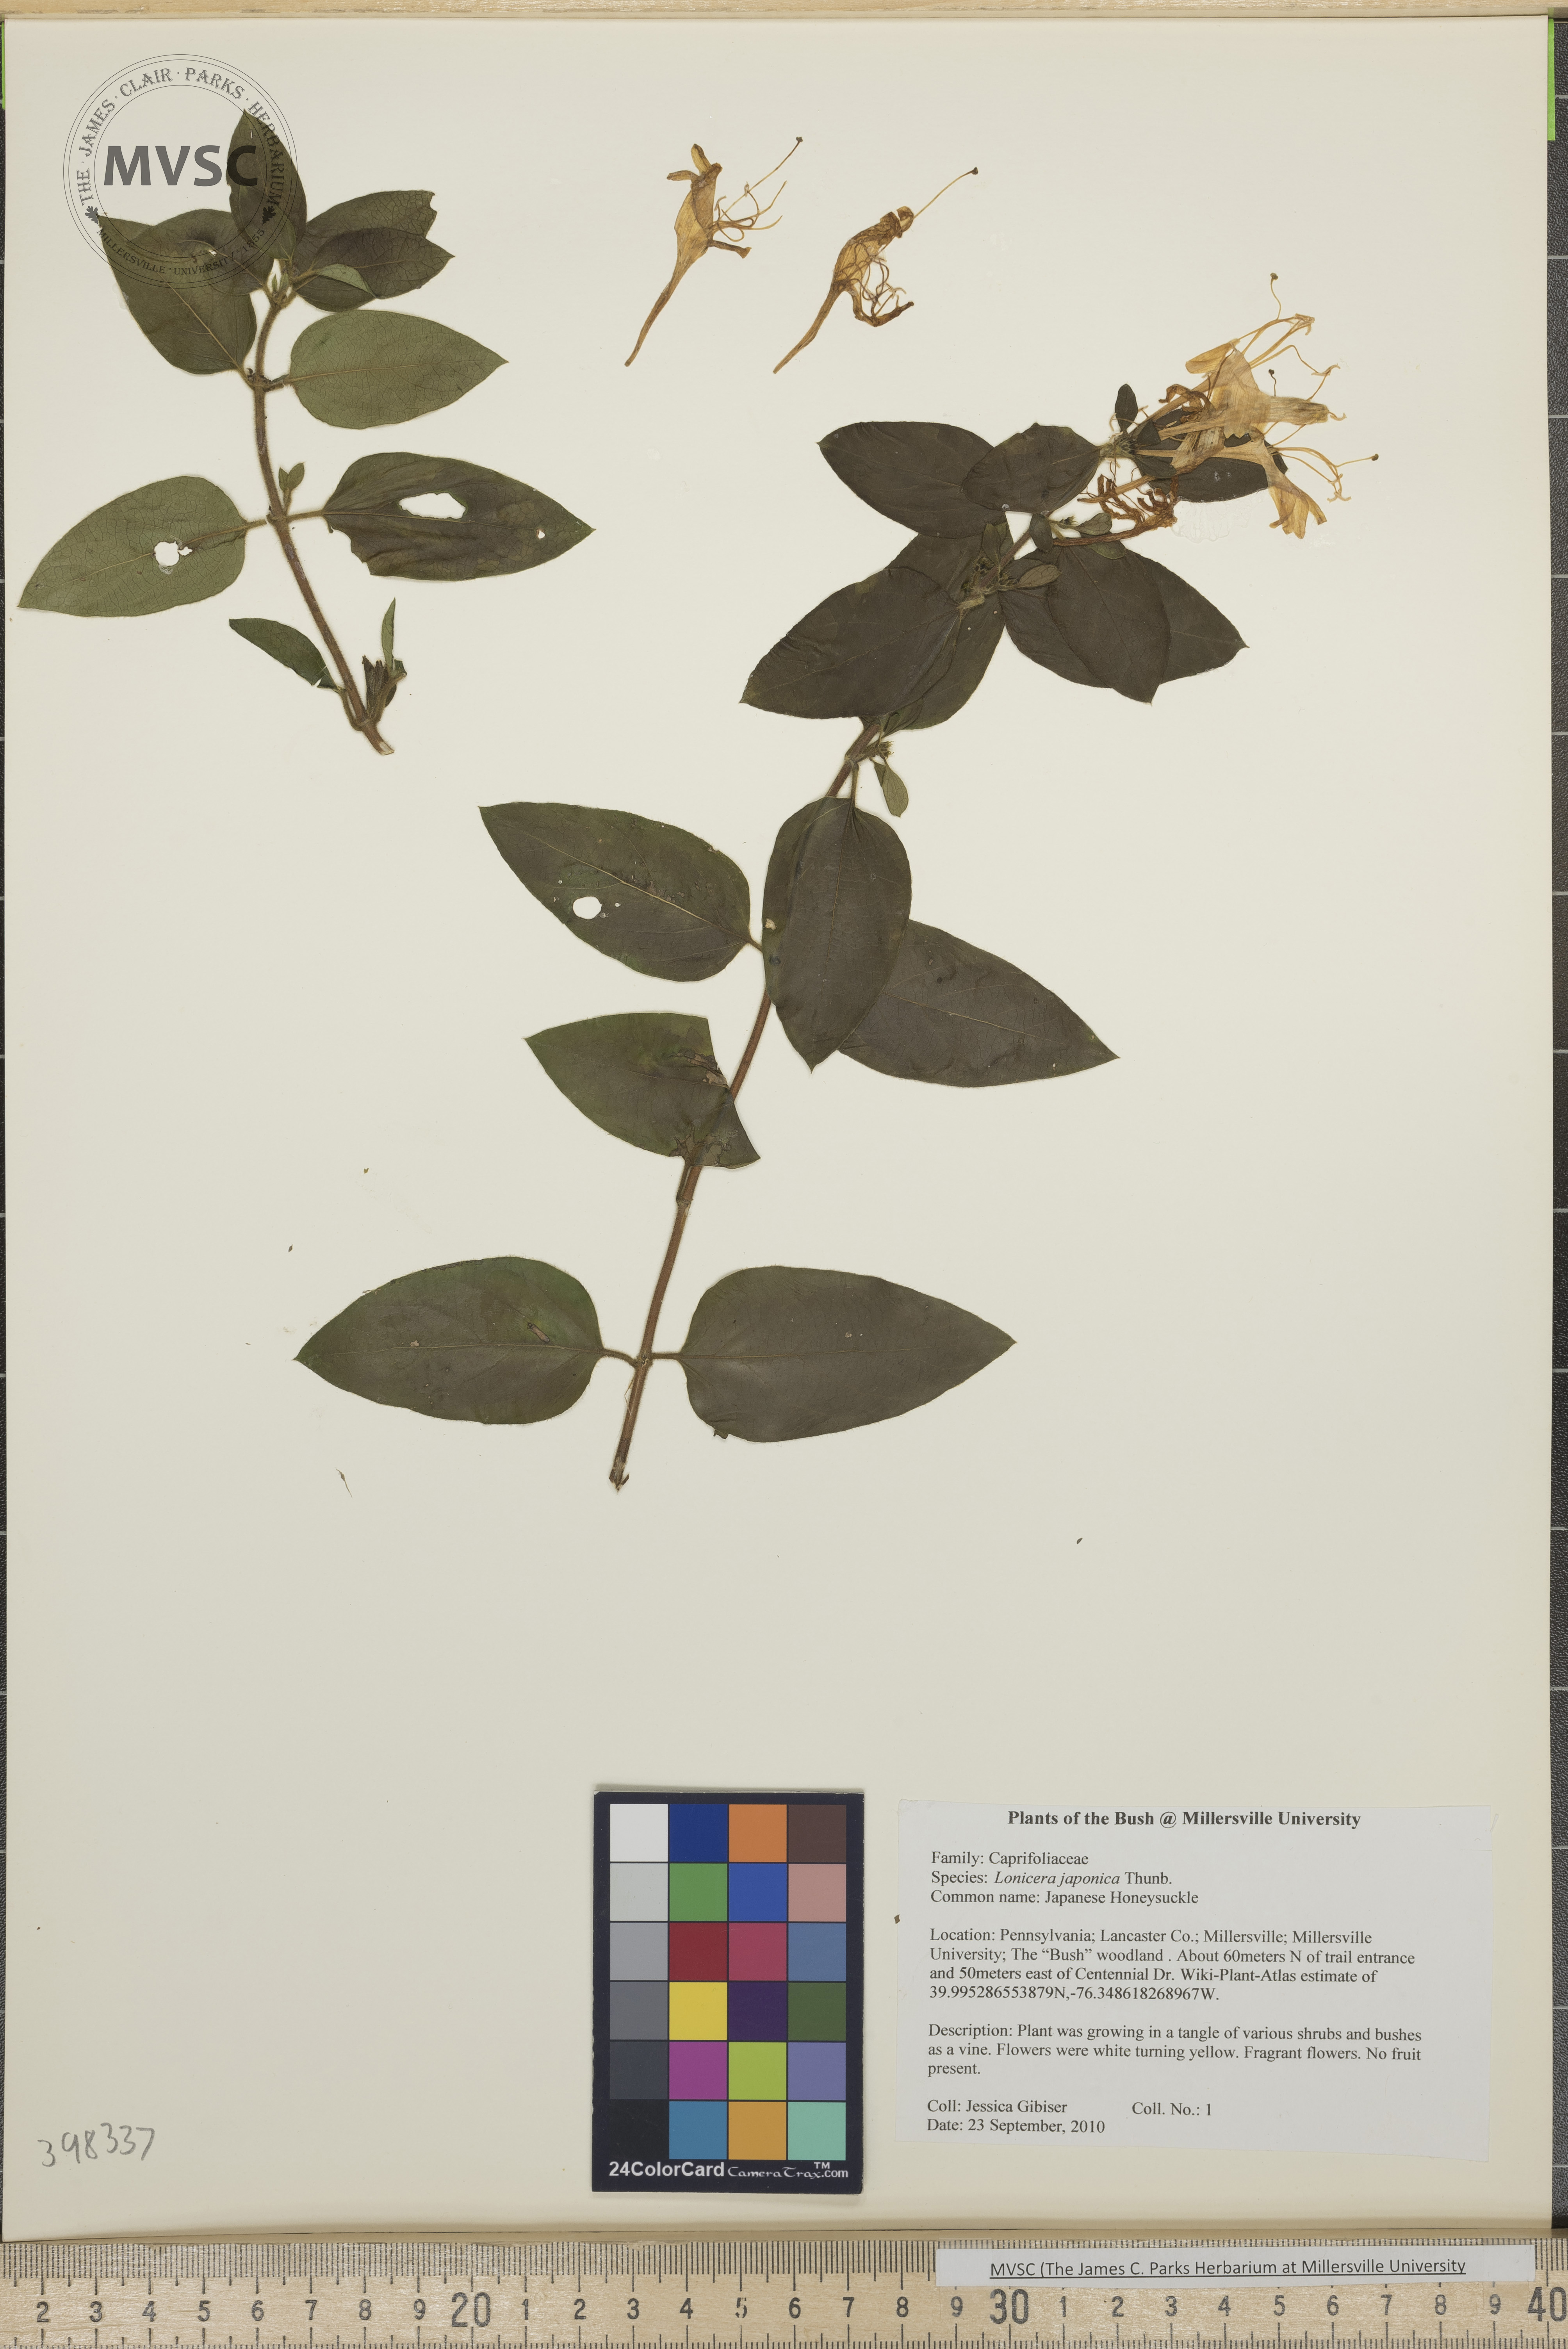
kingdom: Plantae
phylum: Tracheophyta
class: Magnoliopsida
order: Dipsacales
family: Caprifoliaceae
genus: Lonicera
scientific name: Lonicera japonica
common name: Japanese honeysuckle
